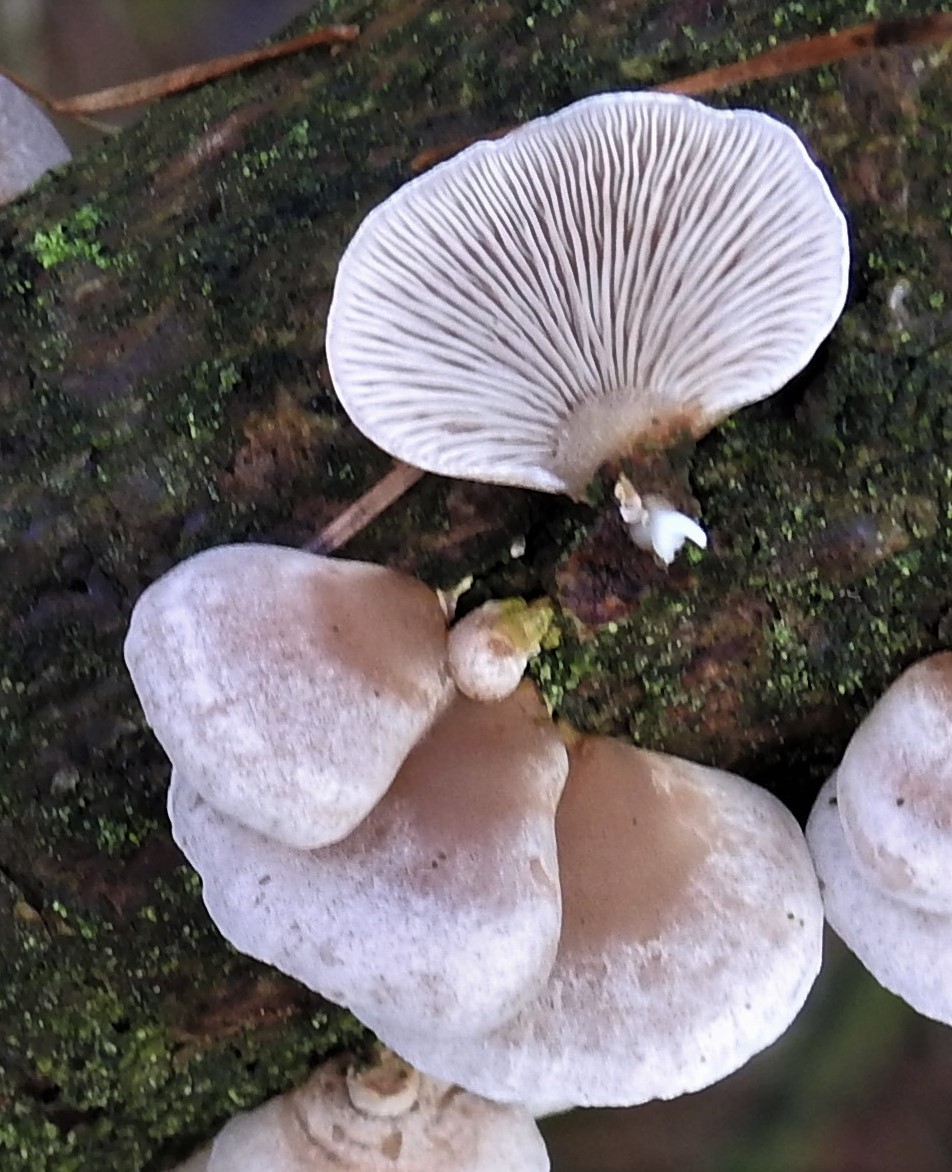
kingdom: Fungi
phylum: Basidiomycota
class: Agaricomycetes
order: Agaricales
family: Mycenaceae
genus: Panellus
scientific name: Panellus mitis
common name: mild epaulethat
